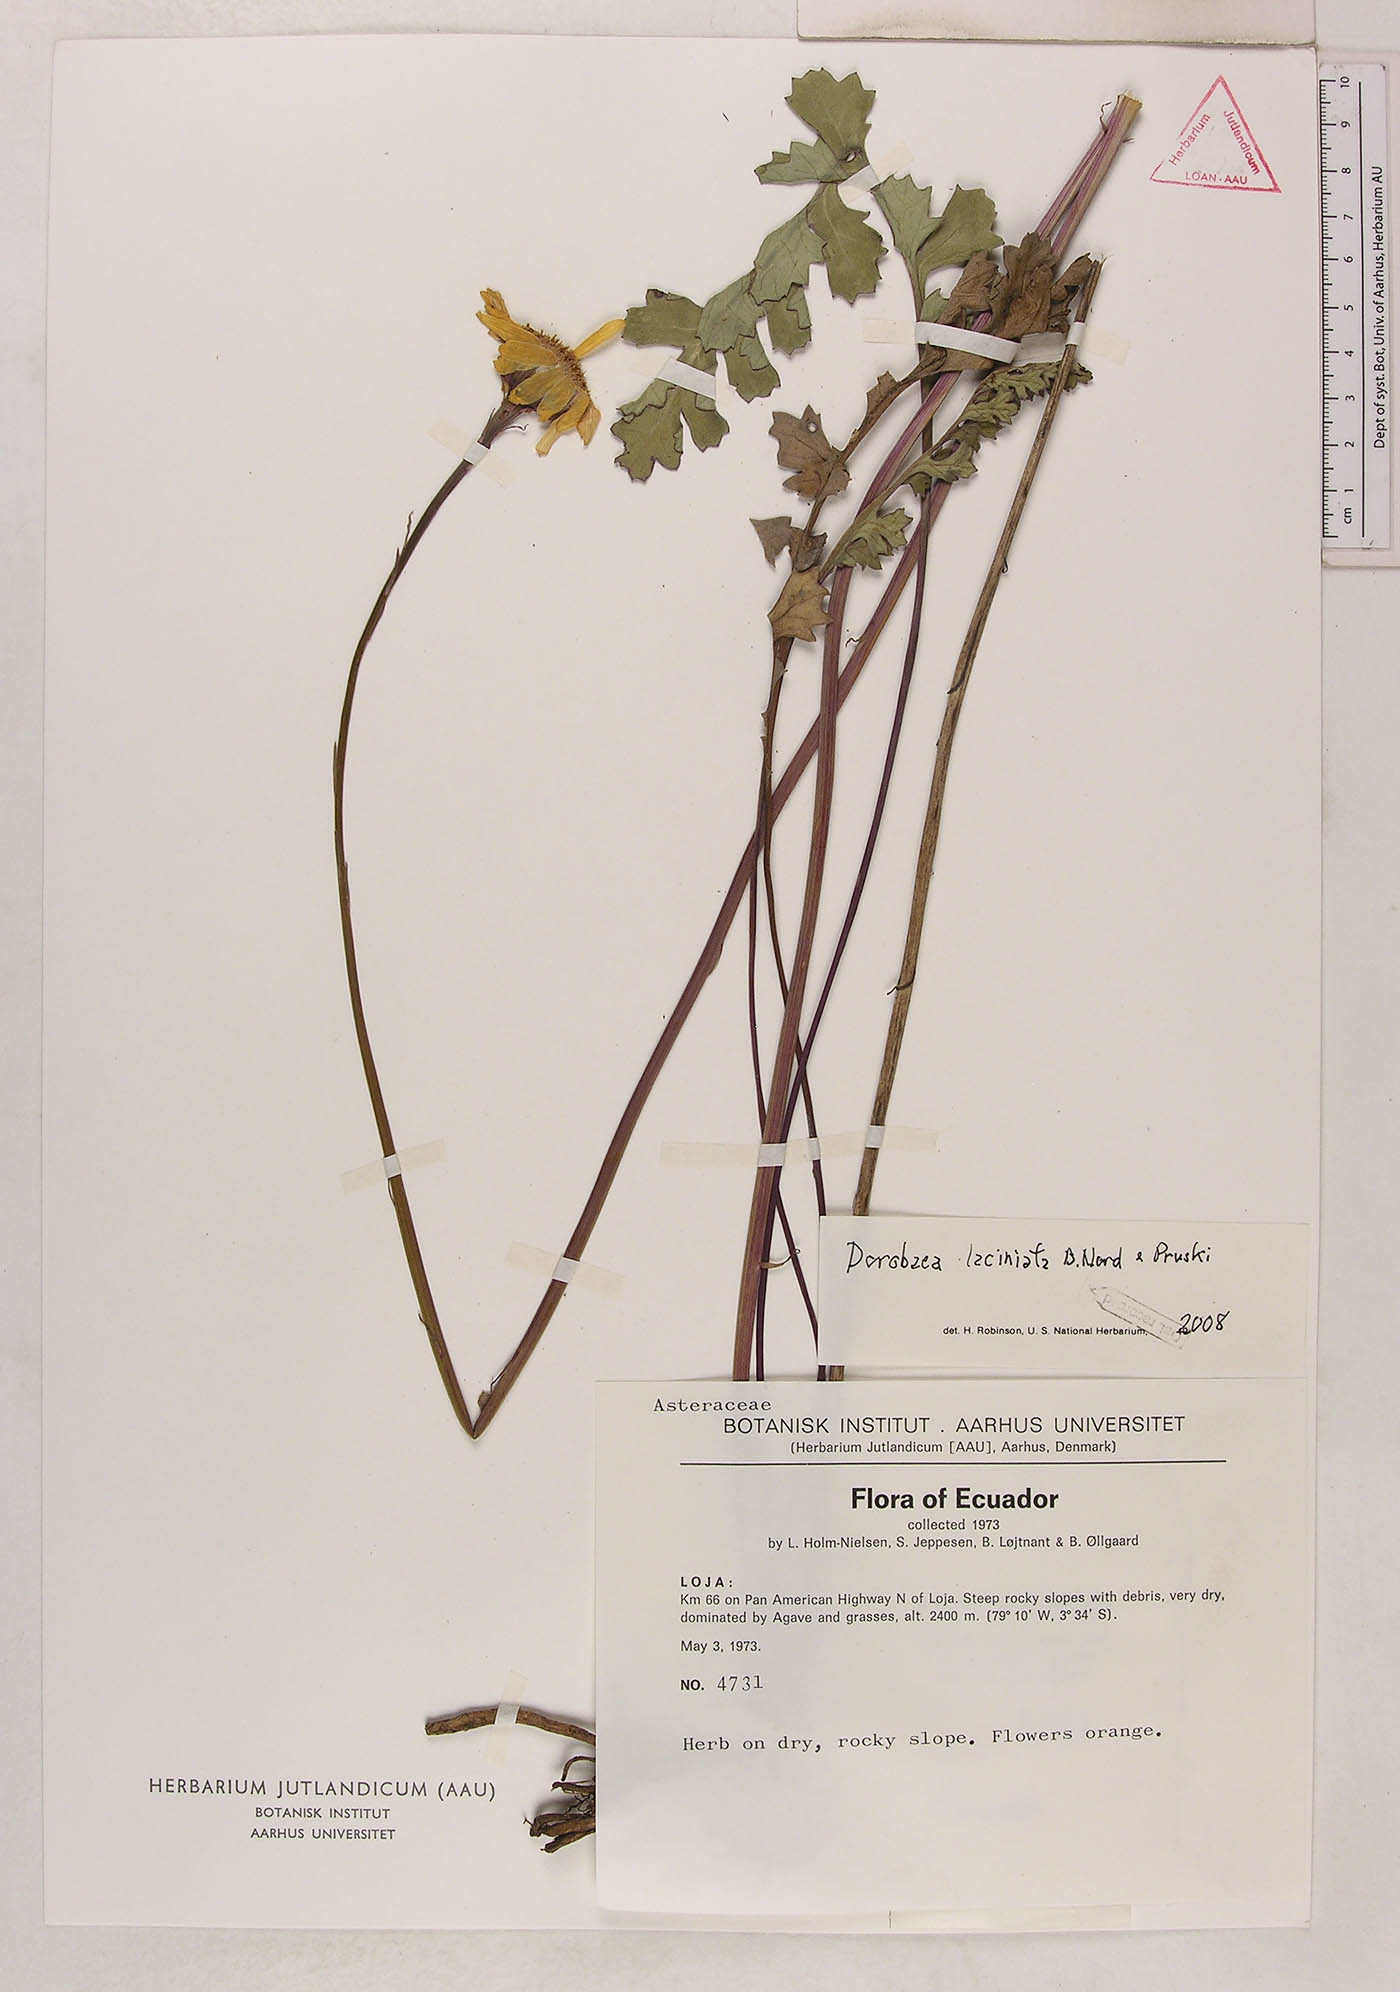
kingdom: Plantae
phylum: Tracheophyta
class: Magnoliopsida
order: Asterales
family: Asteraceae
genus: Dorobaea
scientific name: Dorobaea laciniata
